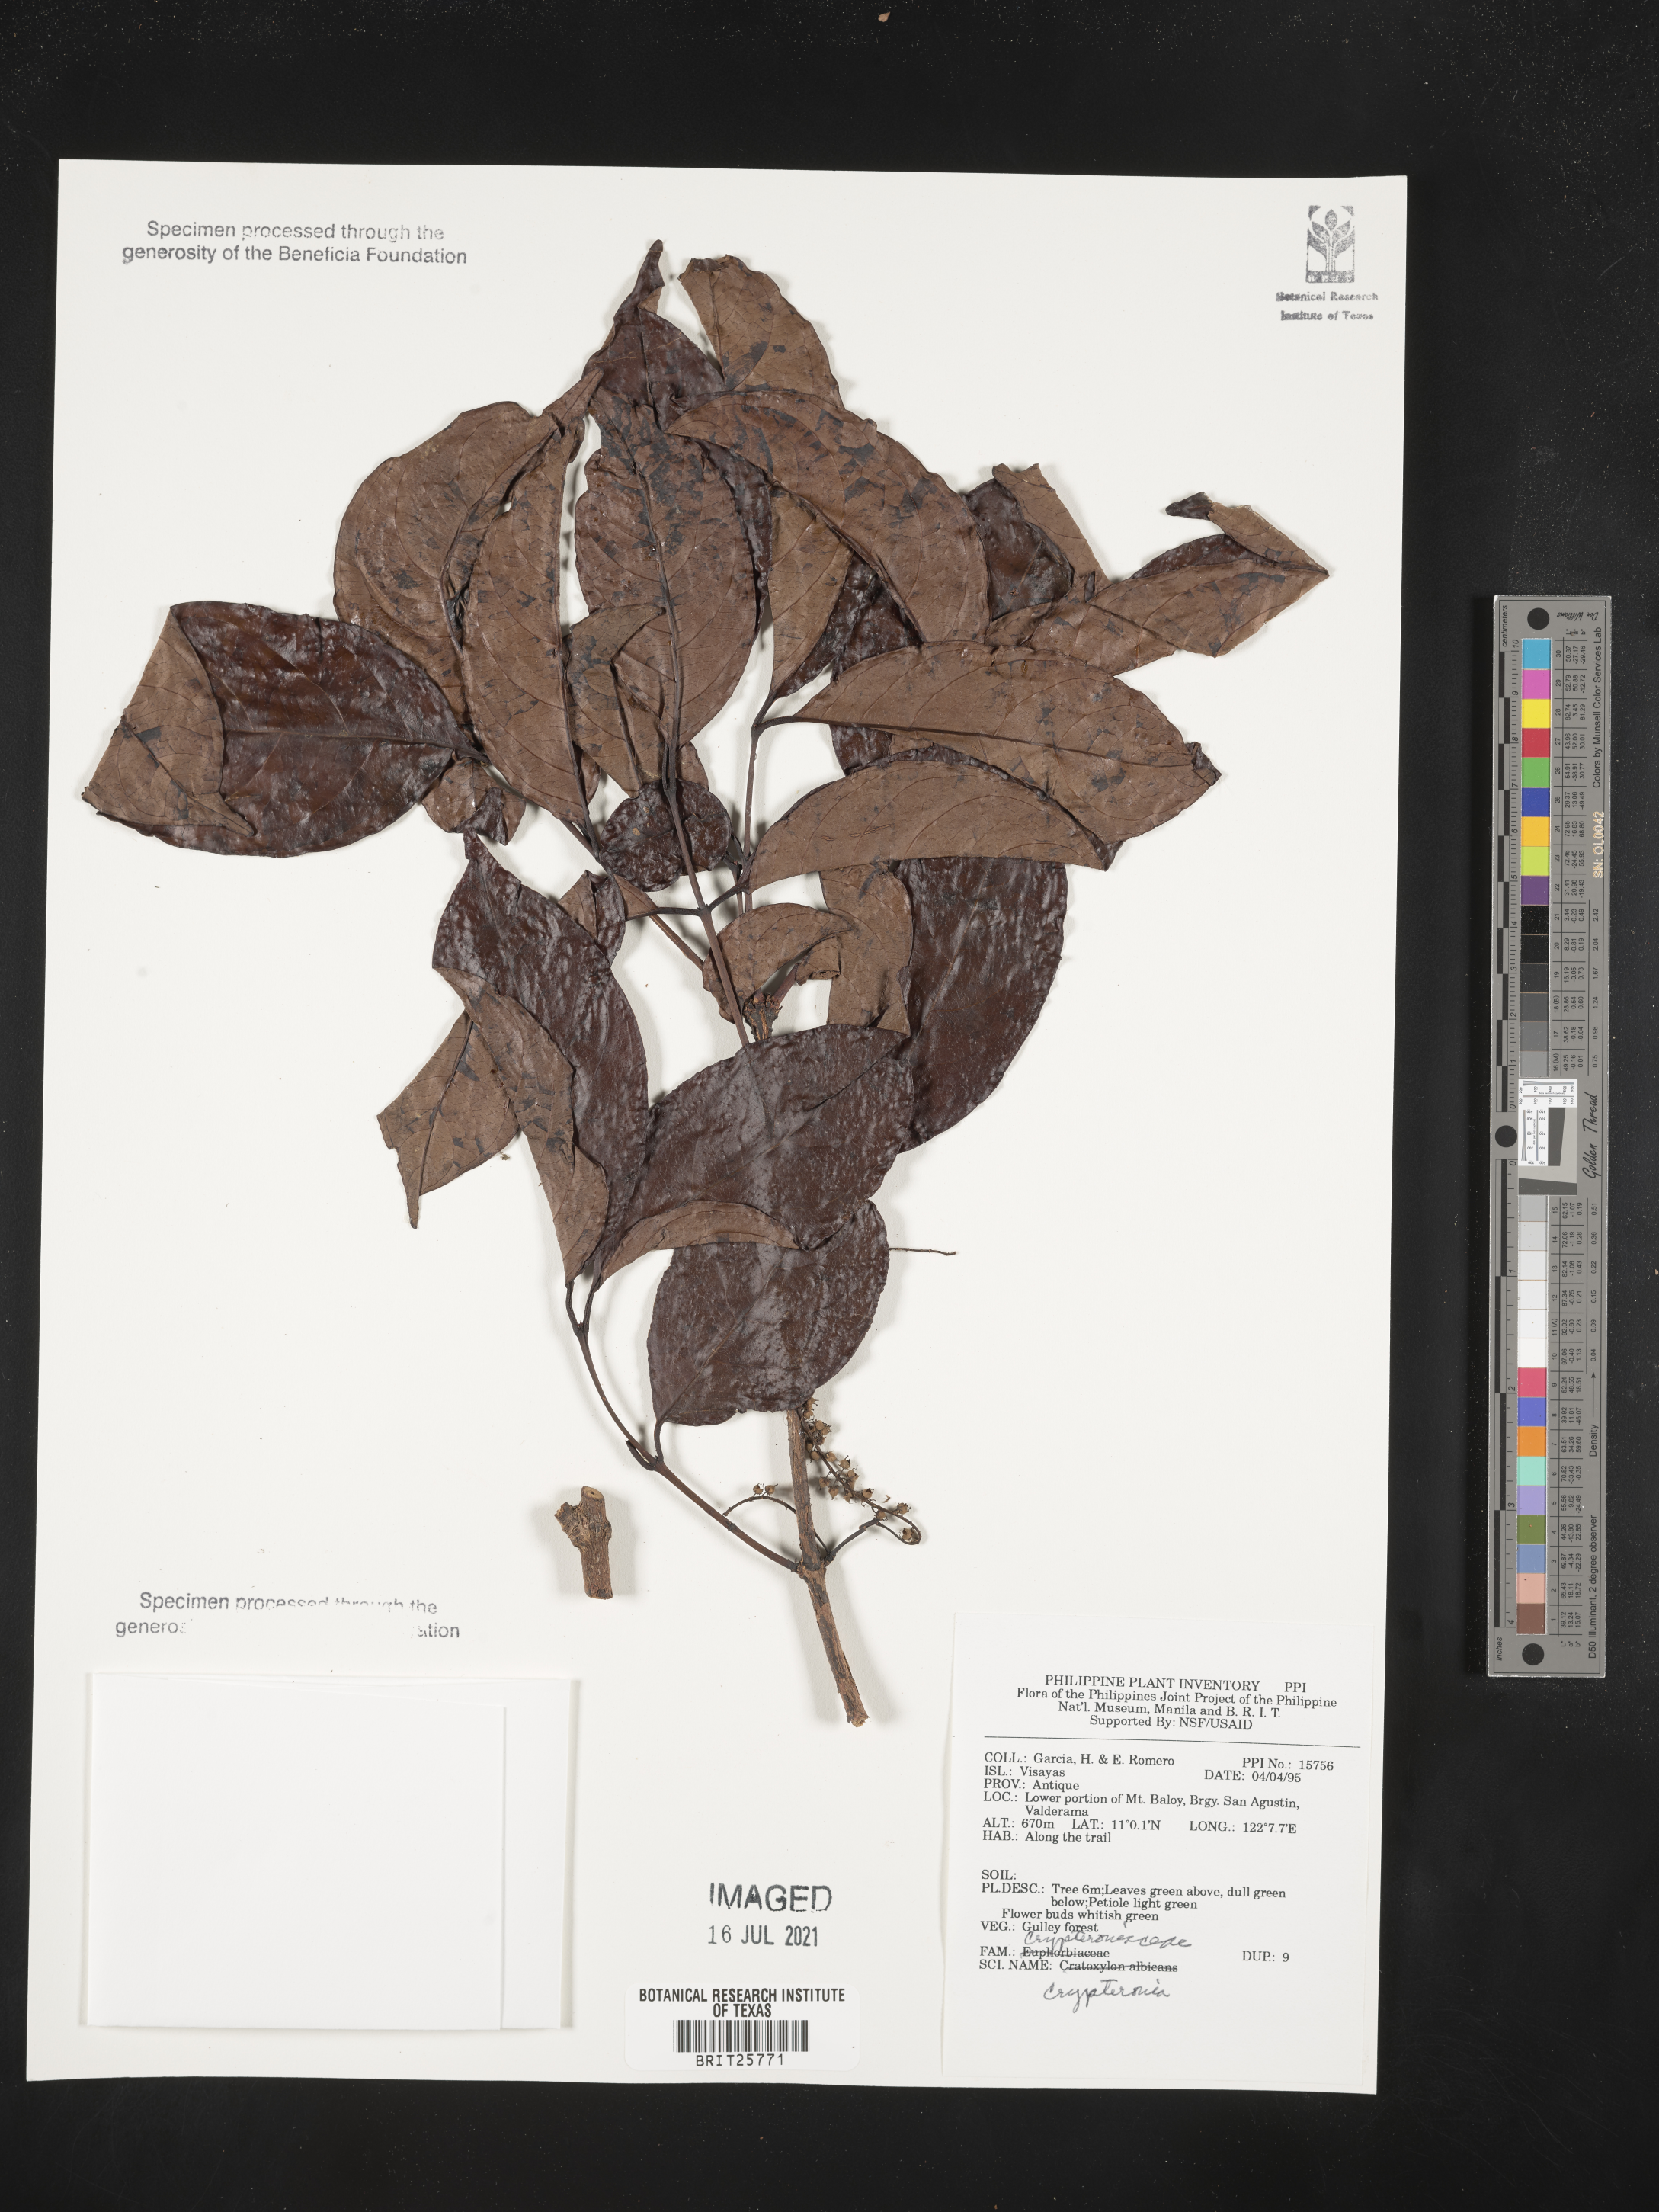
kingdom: Plantae
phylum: Tracheophyta
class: Magnoliopsida
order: Myrtales
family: Crypteroniaceae
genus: Crypteronia
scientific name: Crypteronia
